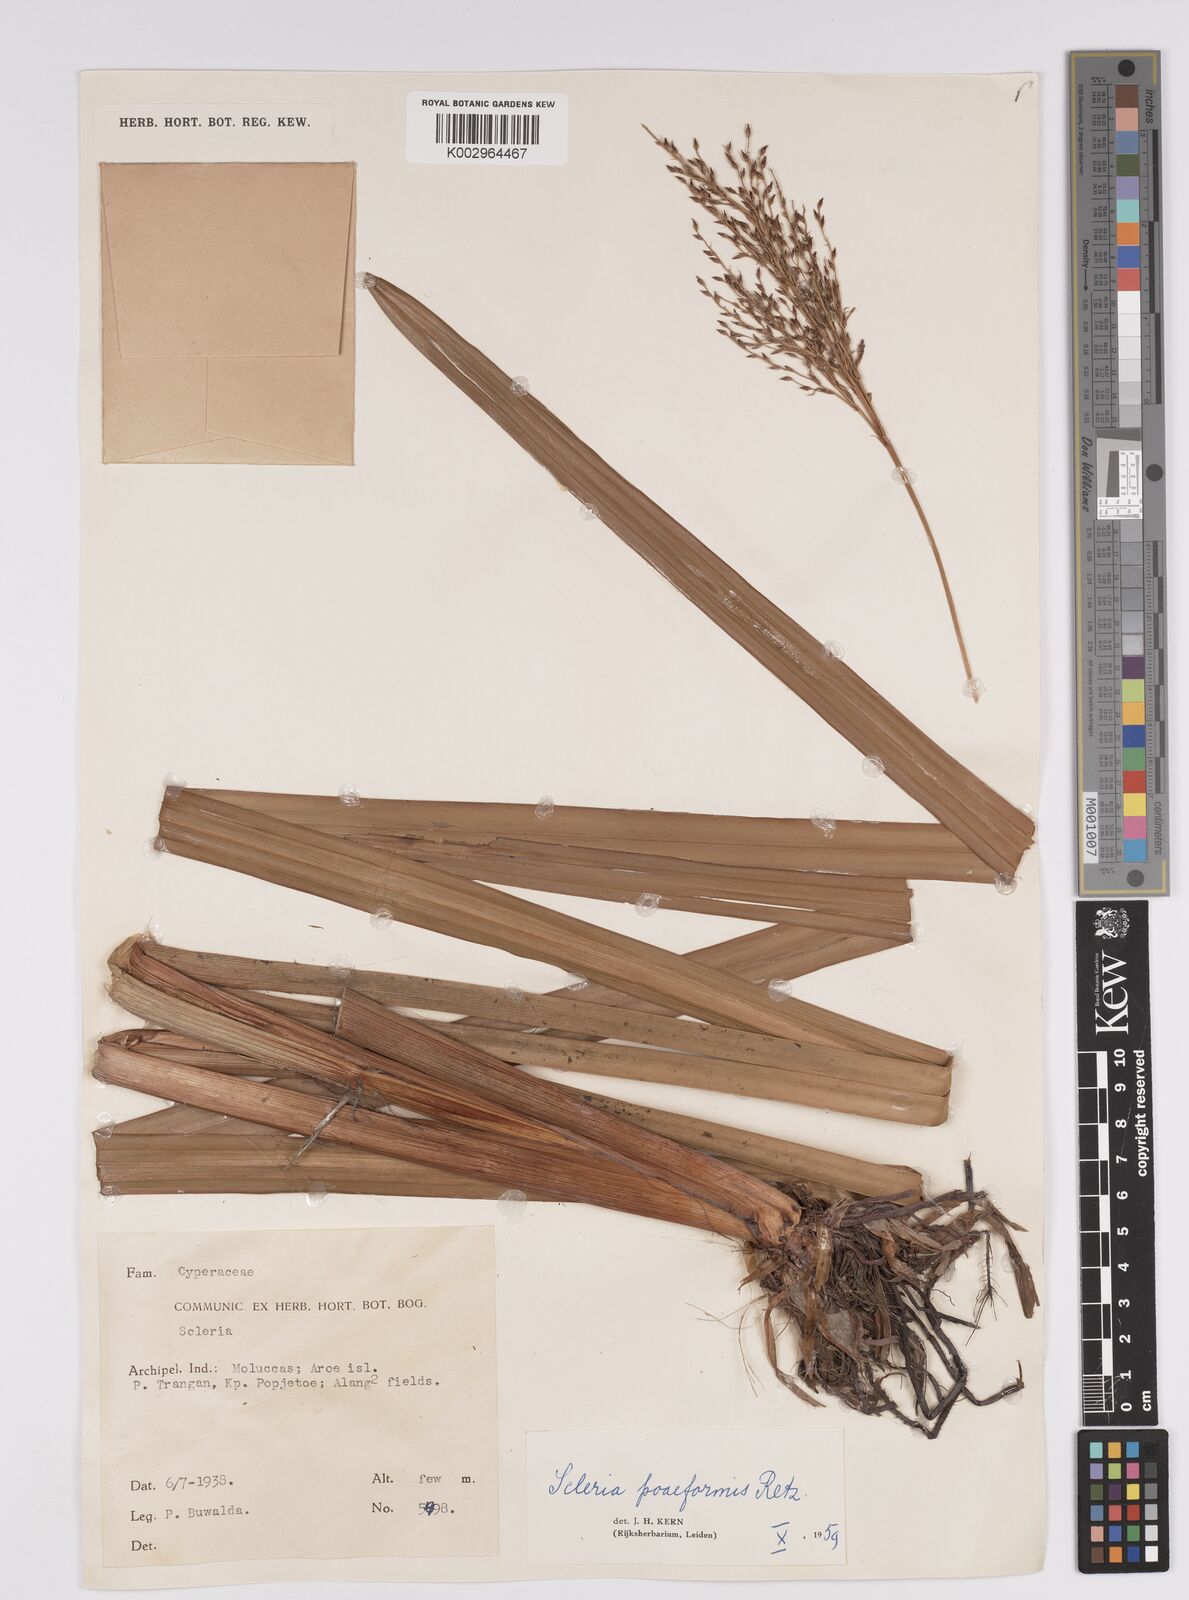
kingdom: Plantae
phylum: Tracheophyta
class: Liliopsida
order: Poales
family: Cyperaceae
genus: Scleria
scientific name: Scleria poiformis
